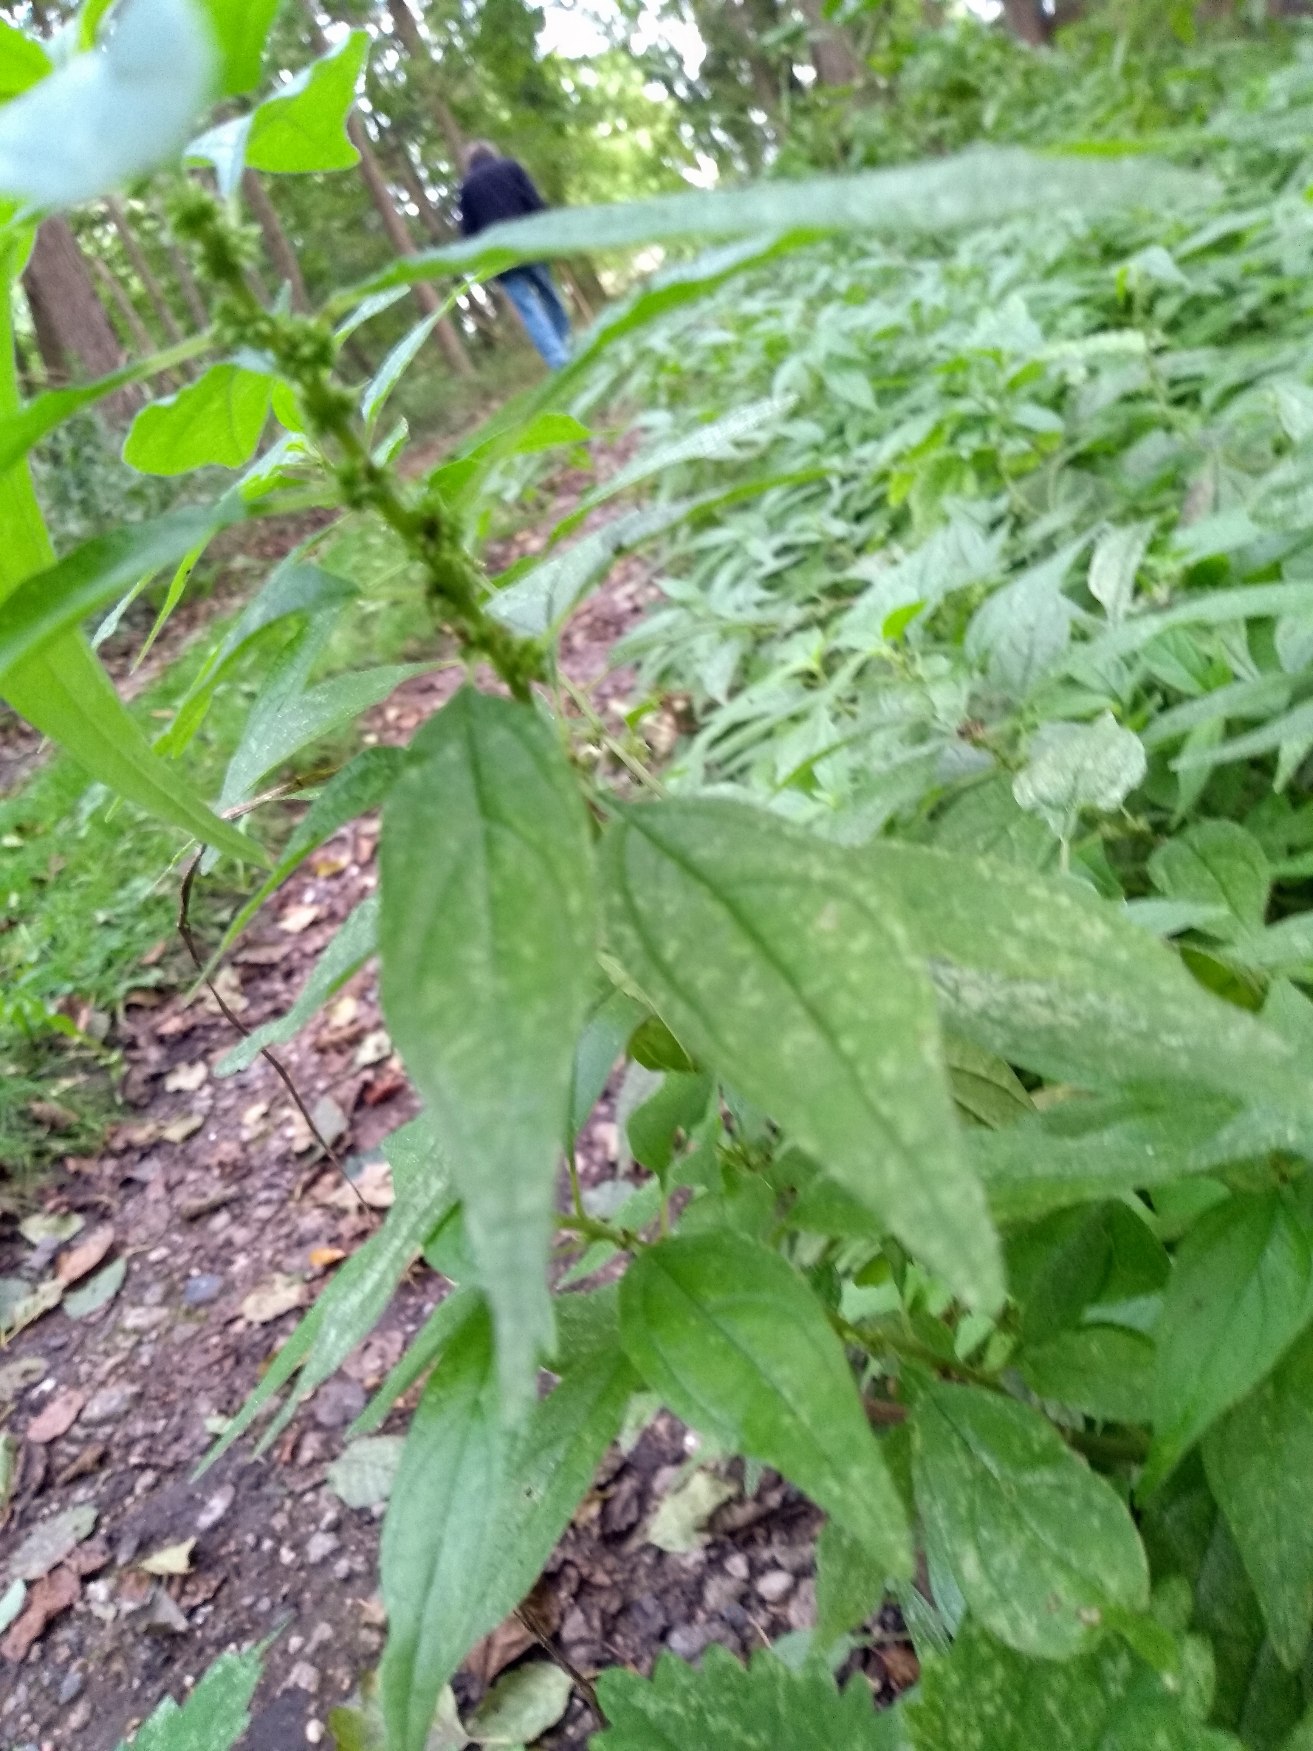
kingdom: Plantae
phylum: Tracheophyta
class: Magnoliopsida
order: Rosales
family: Urticaceae
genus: Parietaria
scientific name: Parietaria officinalis
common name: Almindelig springknap
